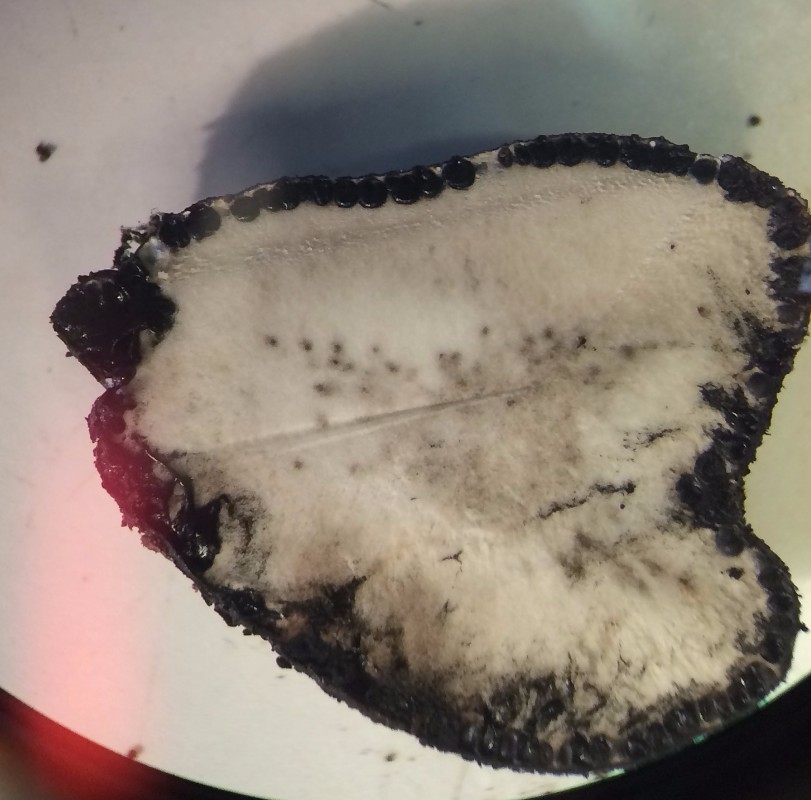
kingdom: Fungi
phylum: Ascomycota
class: Sordariomycetes
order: Xylariales
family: Xylariaceae
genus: Xylaria
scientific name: Xylaria polymorpha
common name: kølle-stødsvamp
